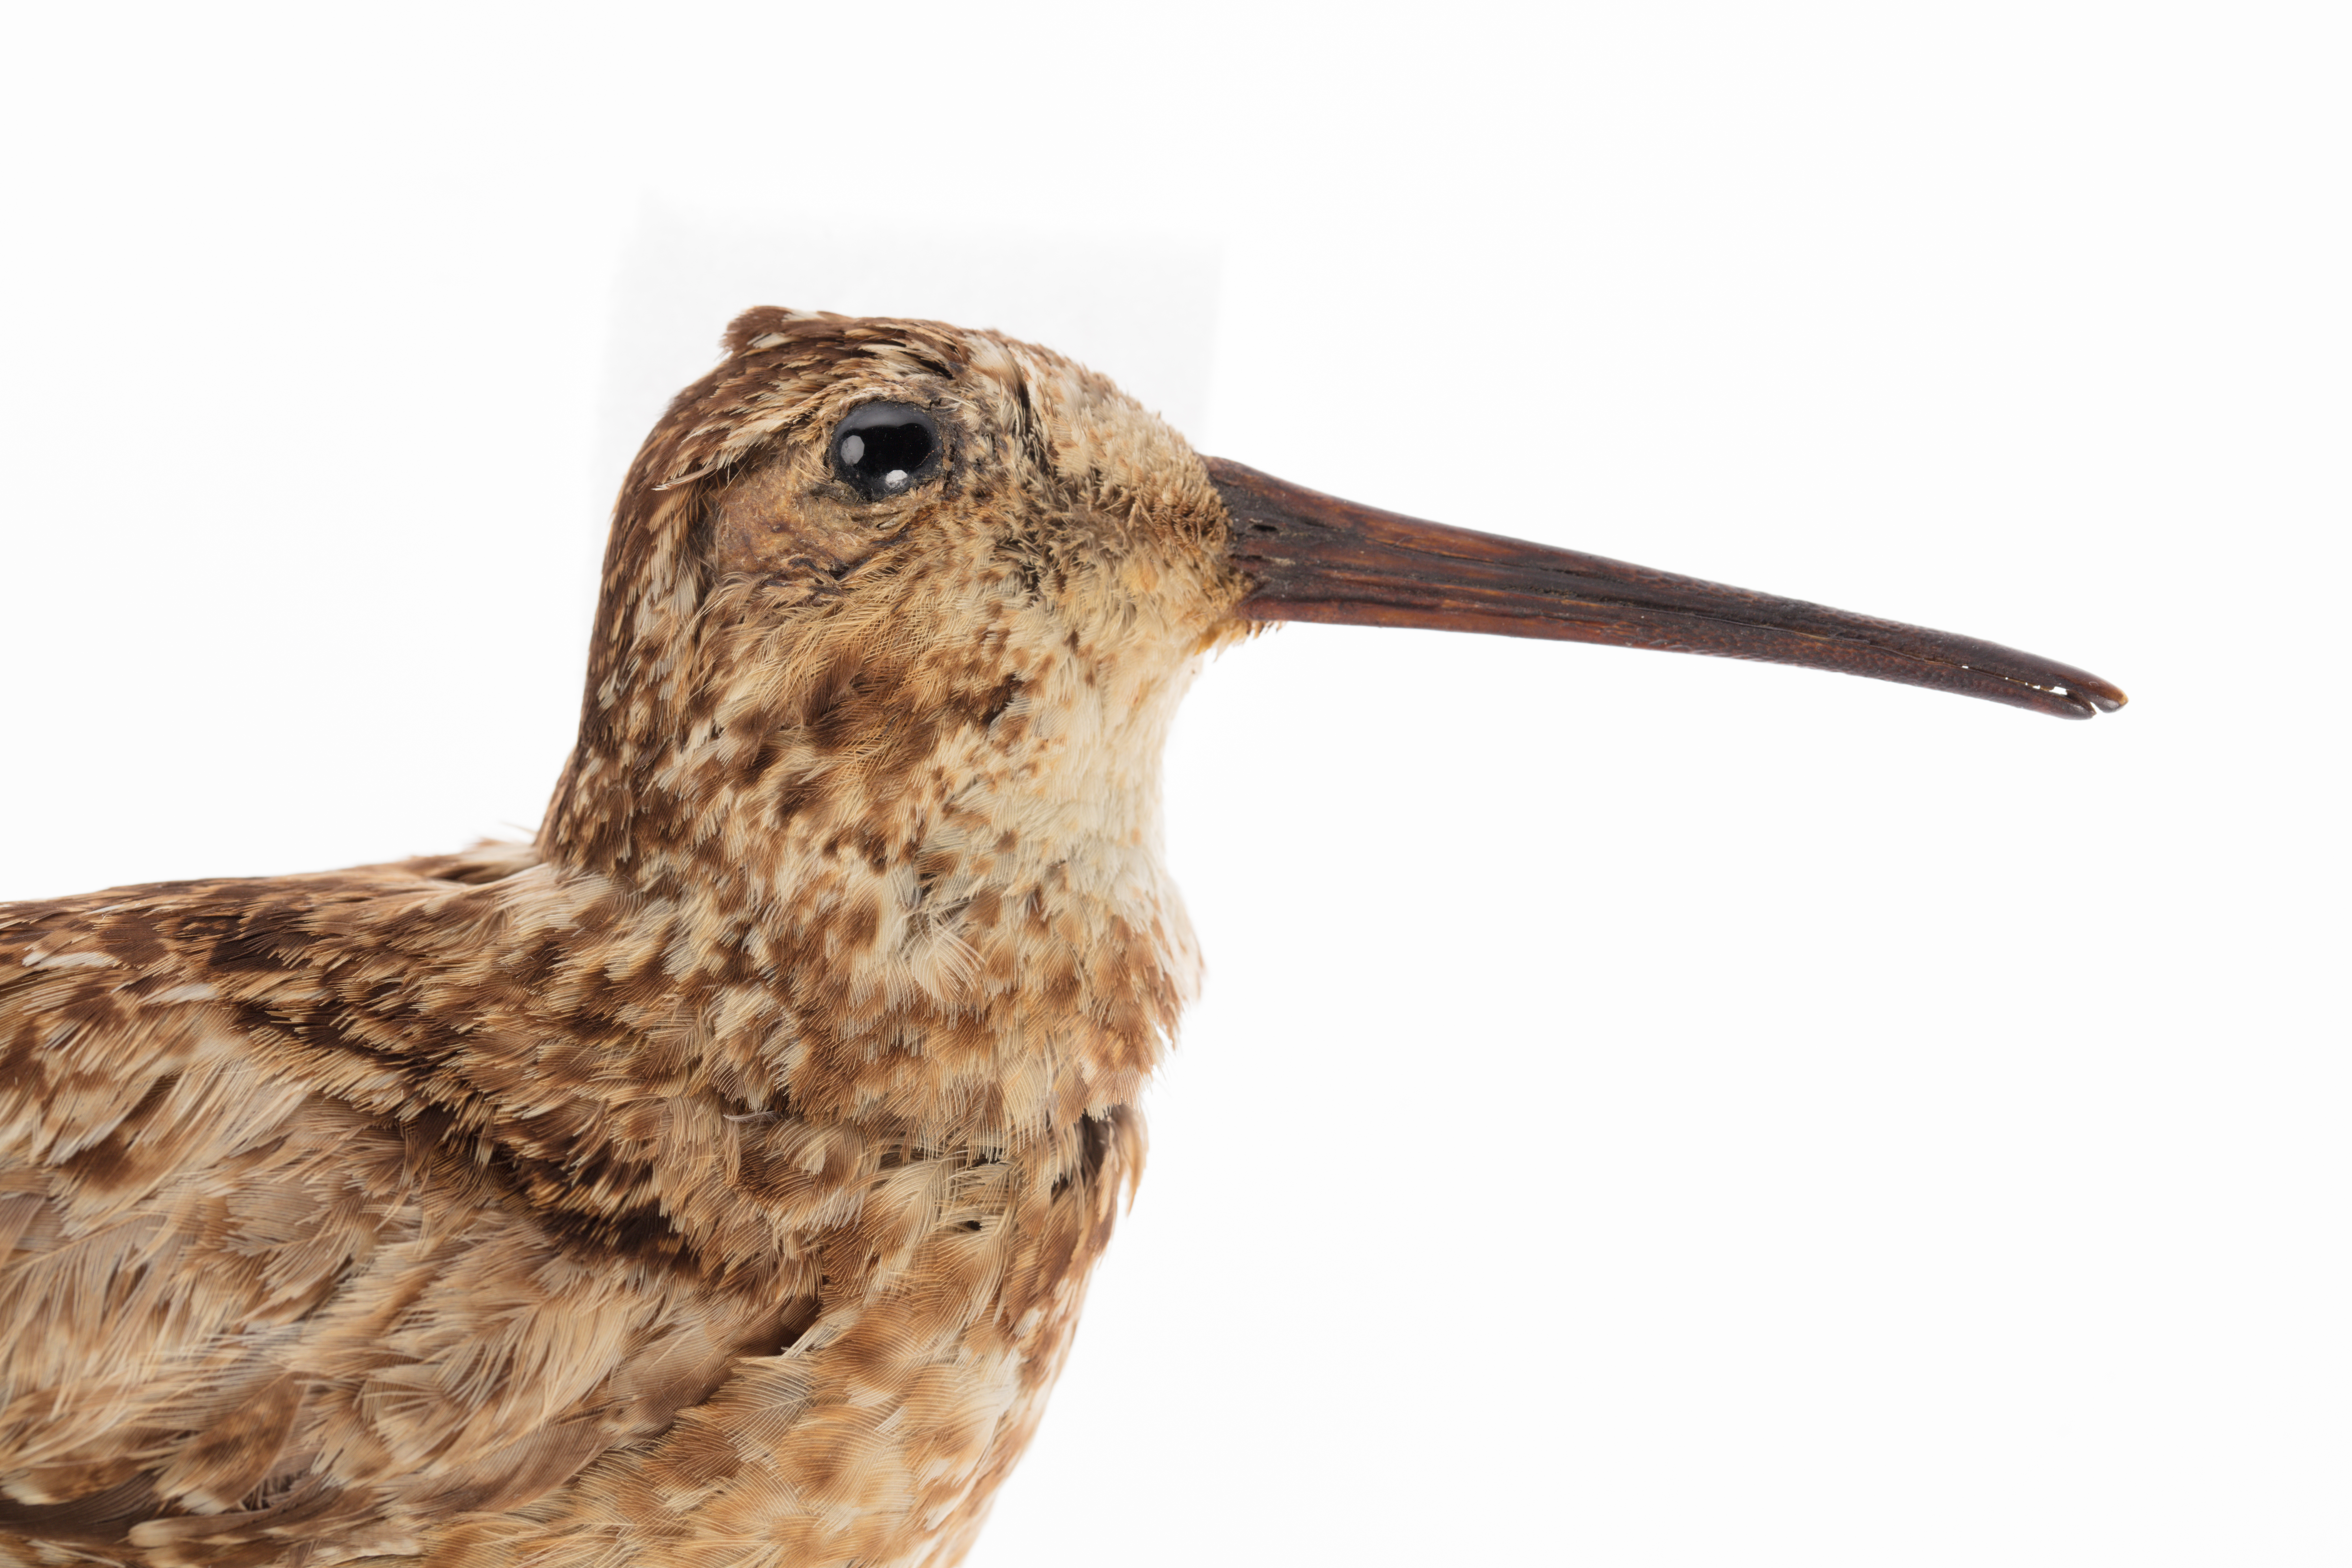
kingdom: Animalia
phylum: Chordata
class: Aves
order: Charadriiformes
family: Scolopacidae
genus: Coenocorypha
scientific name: Coenocorypha barrierensis
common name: North island snipe
